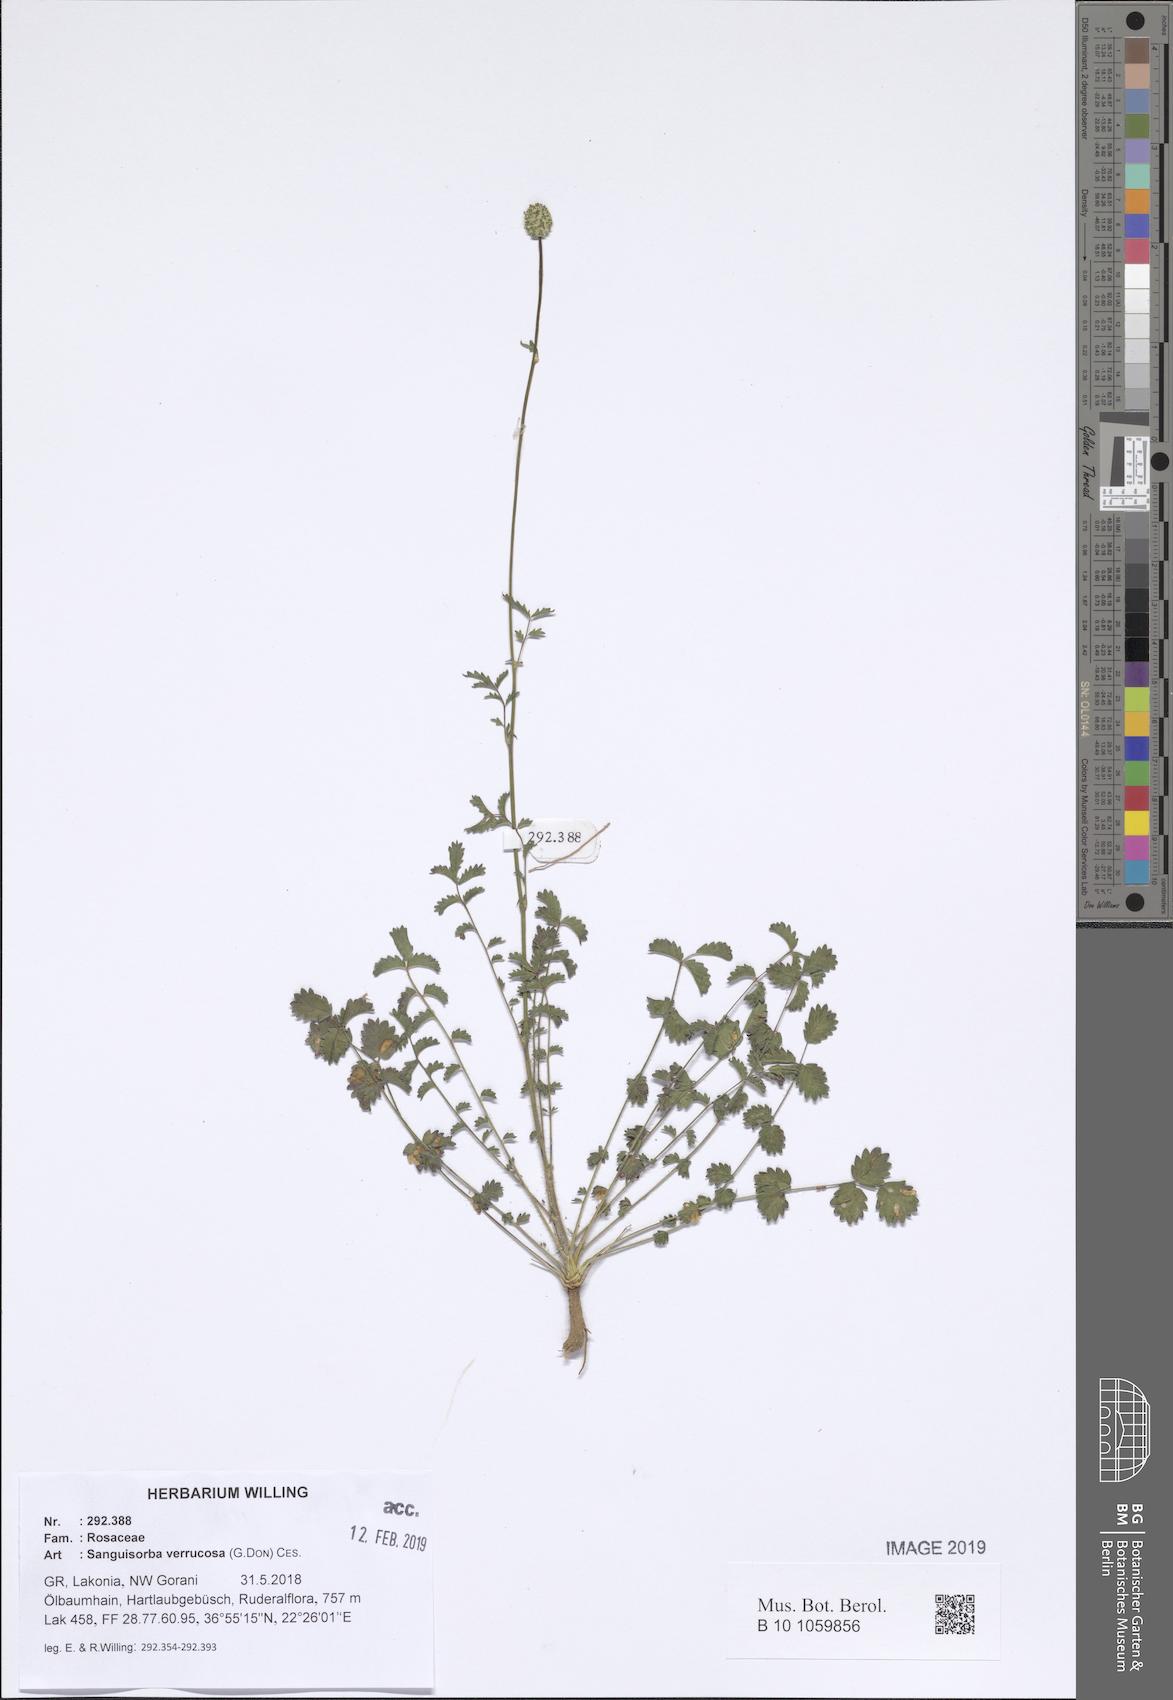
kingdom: Plantae
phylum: Tracheophyta
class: Magnoliopsida
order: Rosales
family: Rosaceae
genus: Poterium
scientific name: Poterium verrucosum
